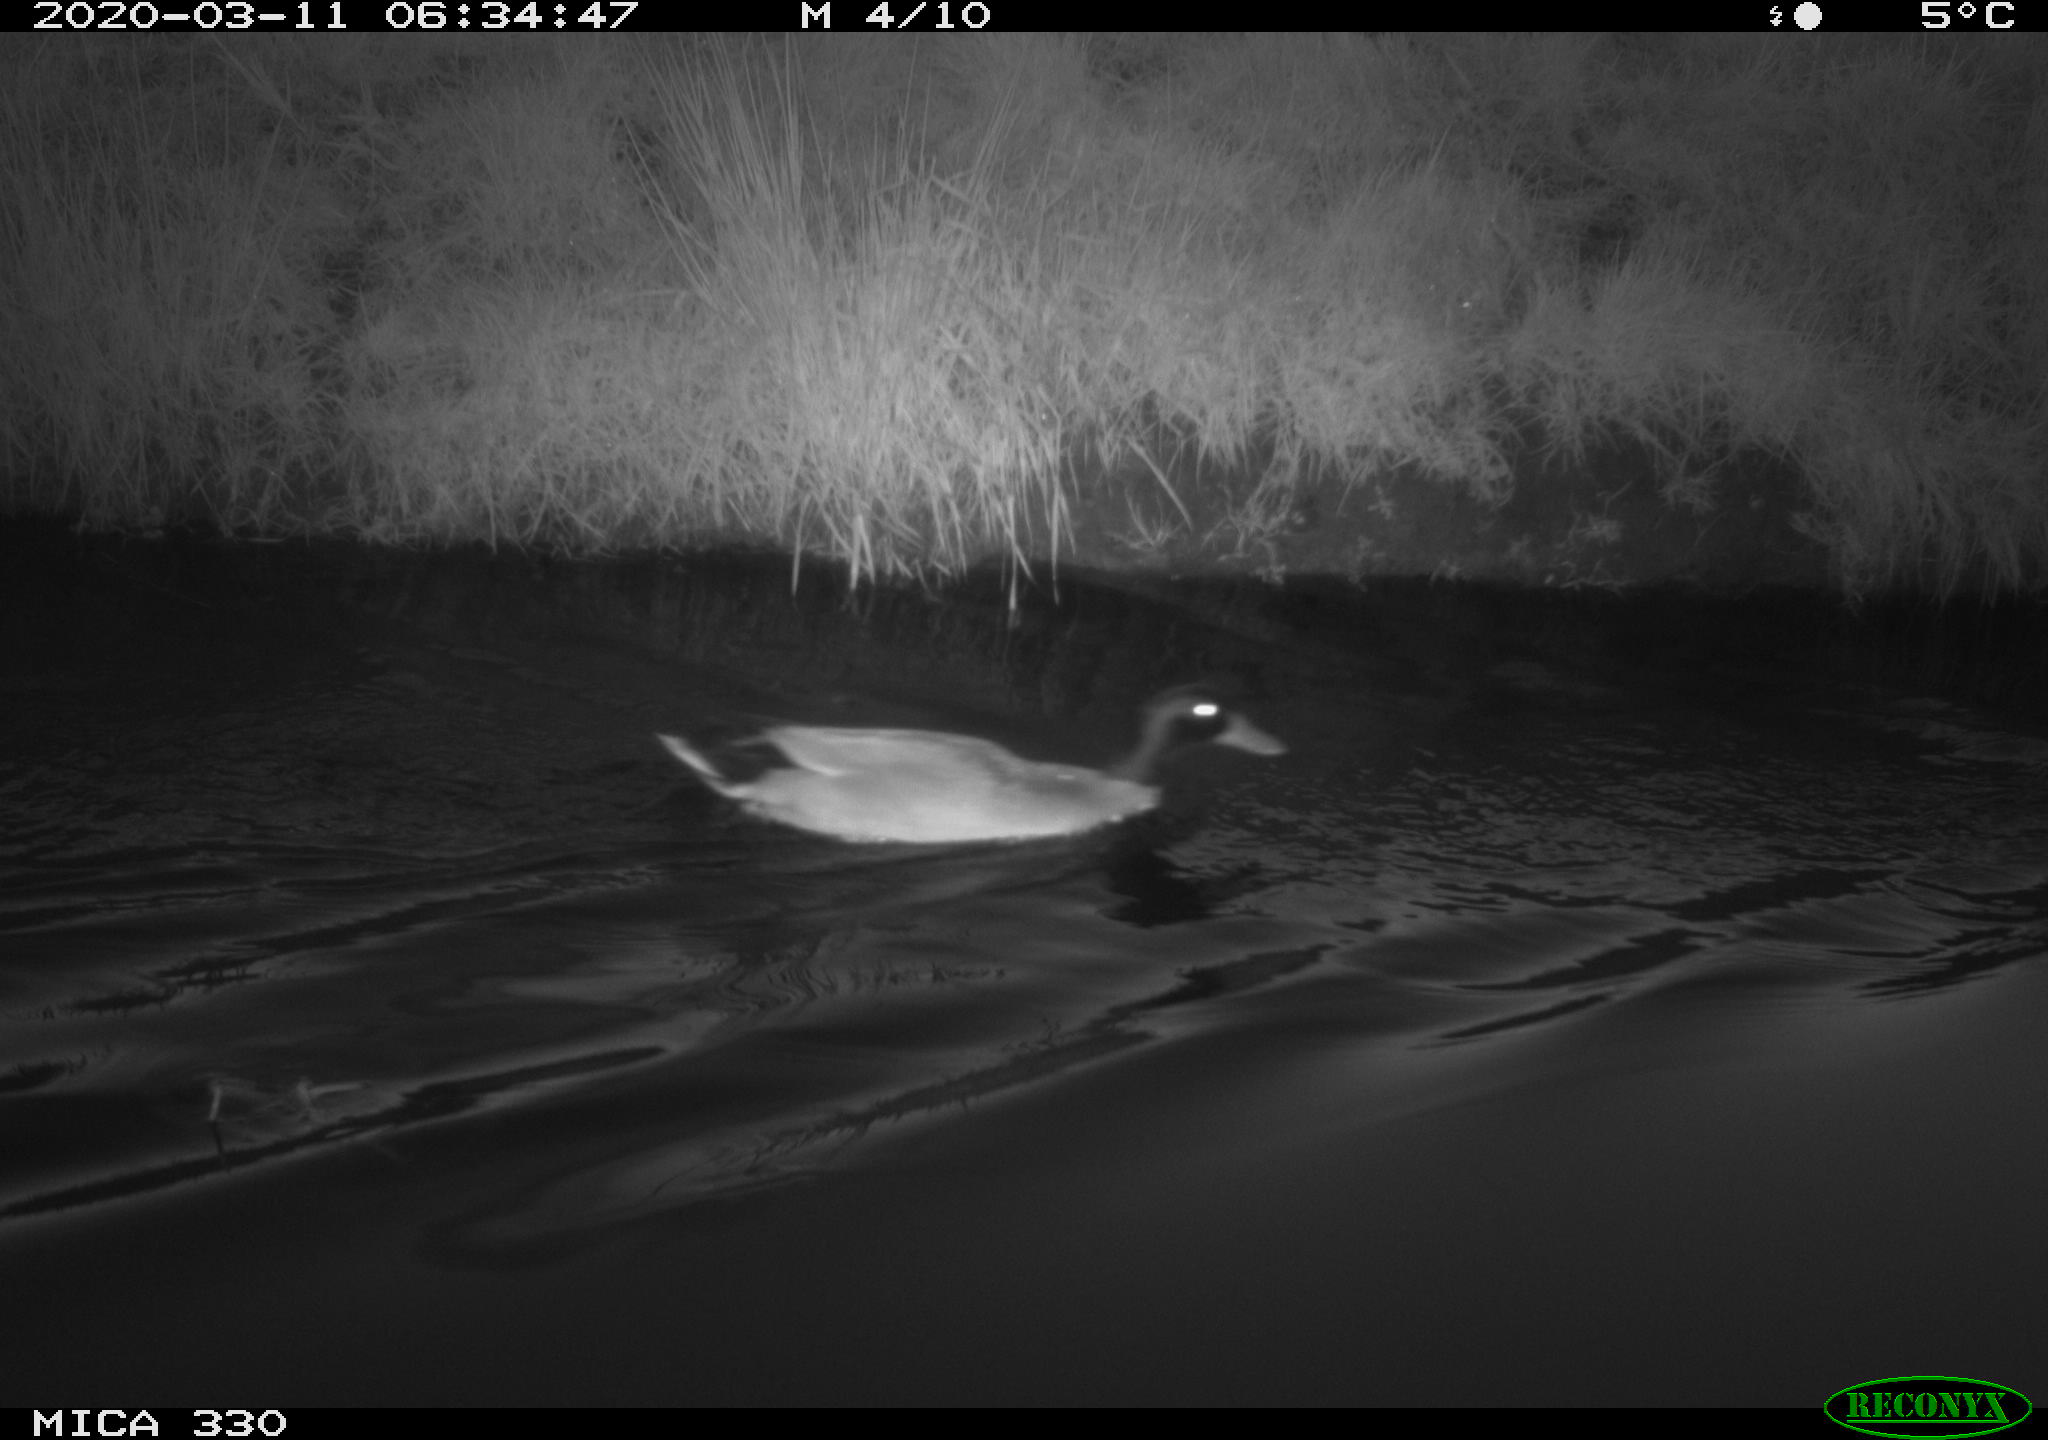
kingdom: Animalia
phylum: Chordata
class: Aves
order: Anseriformes
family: Anatidae
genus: Anas
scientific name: Anas platyrhynchos
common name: Mallard
